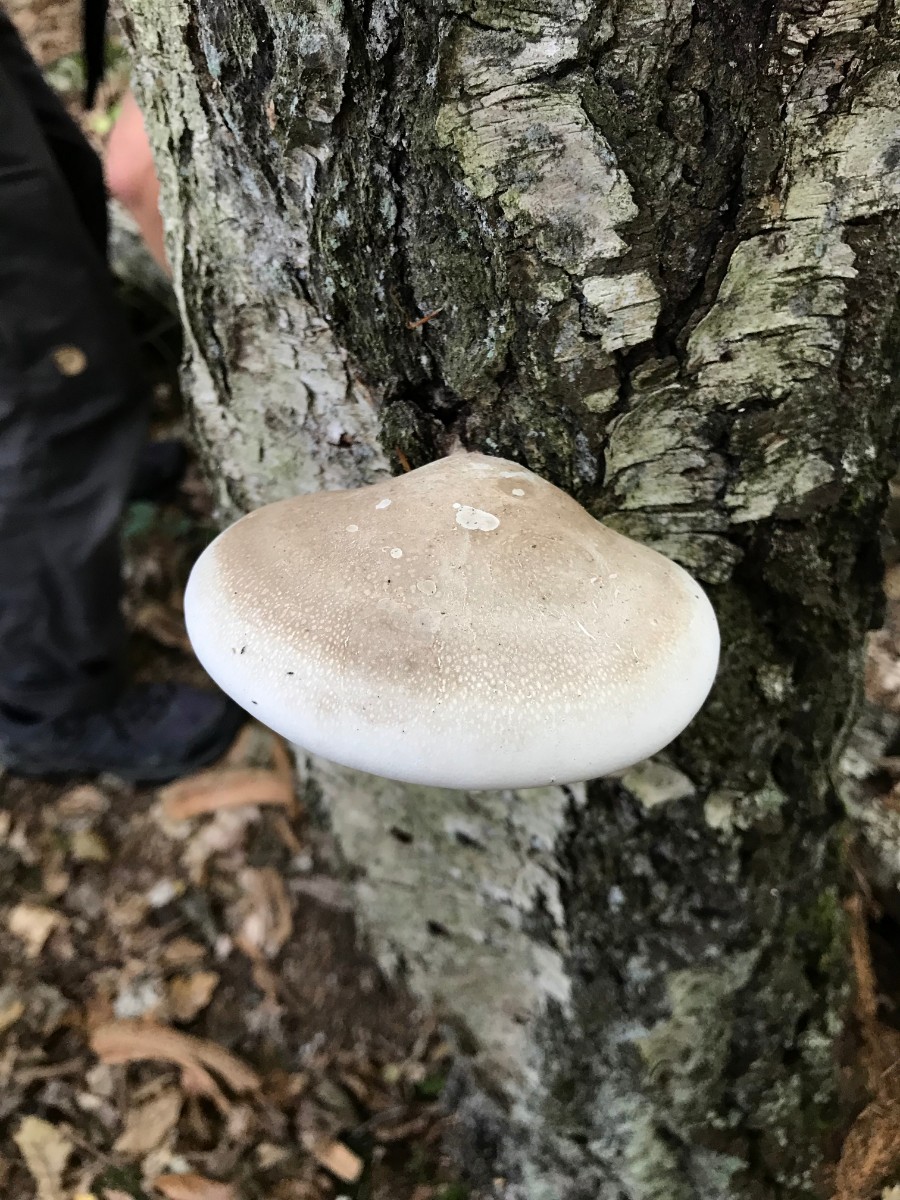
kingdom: Fungi
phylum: Basidiomycota
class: Agaricomycetes
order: Polyporales
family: Fomitopsidaceae
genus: Fomitopsis
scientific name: Fomitopsis betulina
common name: birkeporesvamp
